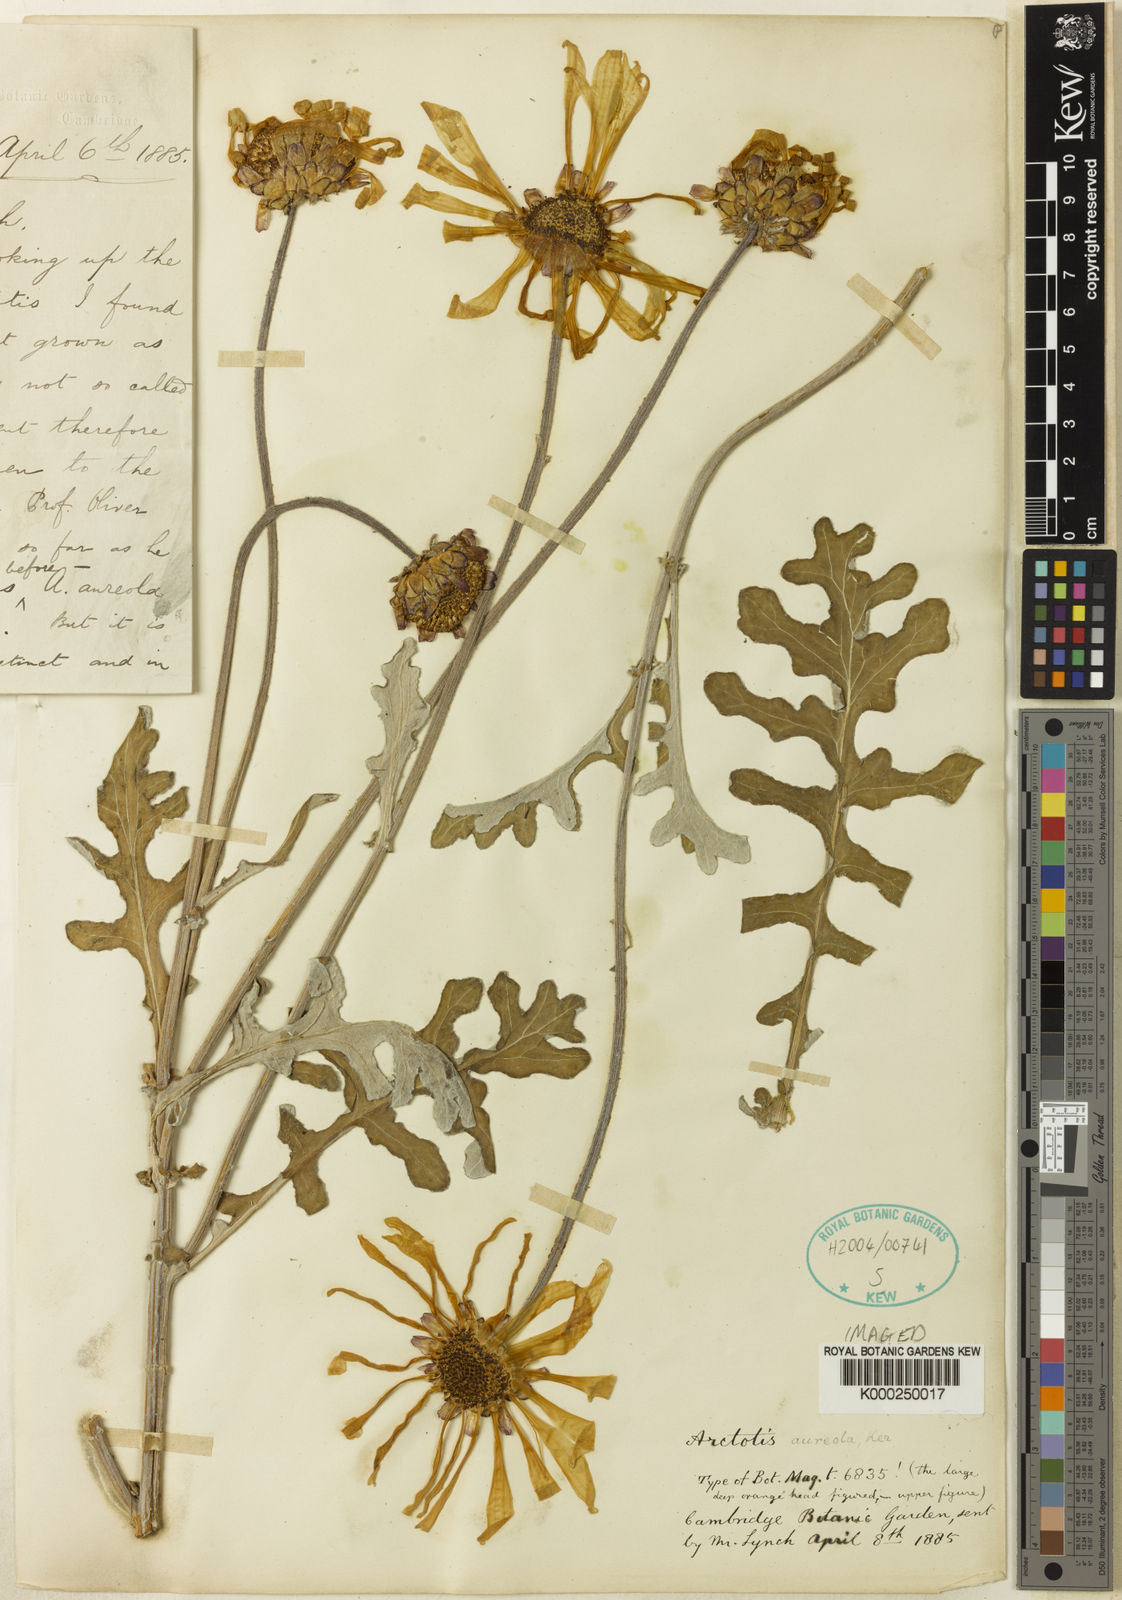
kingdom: Plantae
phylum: Tracheophyta
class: Magnoliopsida
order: Asterales
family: Asteraceae
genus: Arctotis
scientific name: Arctotis laciniata
